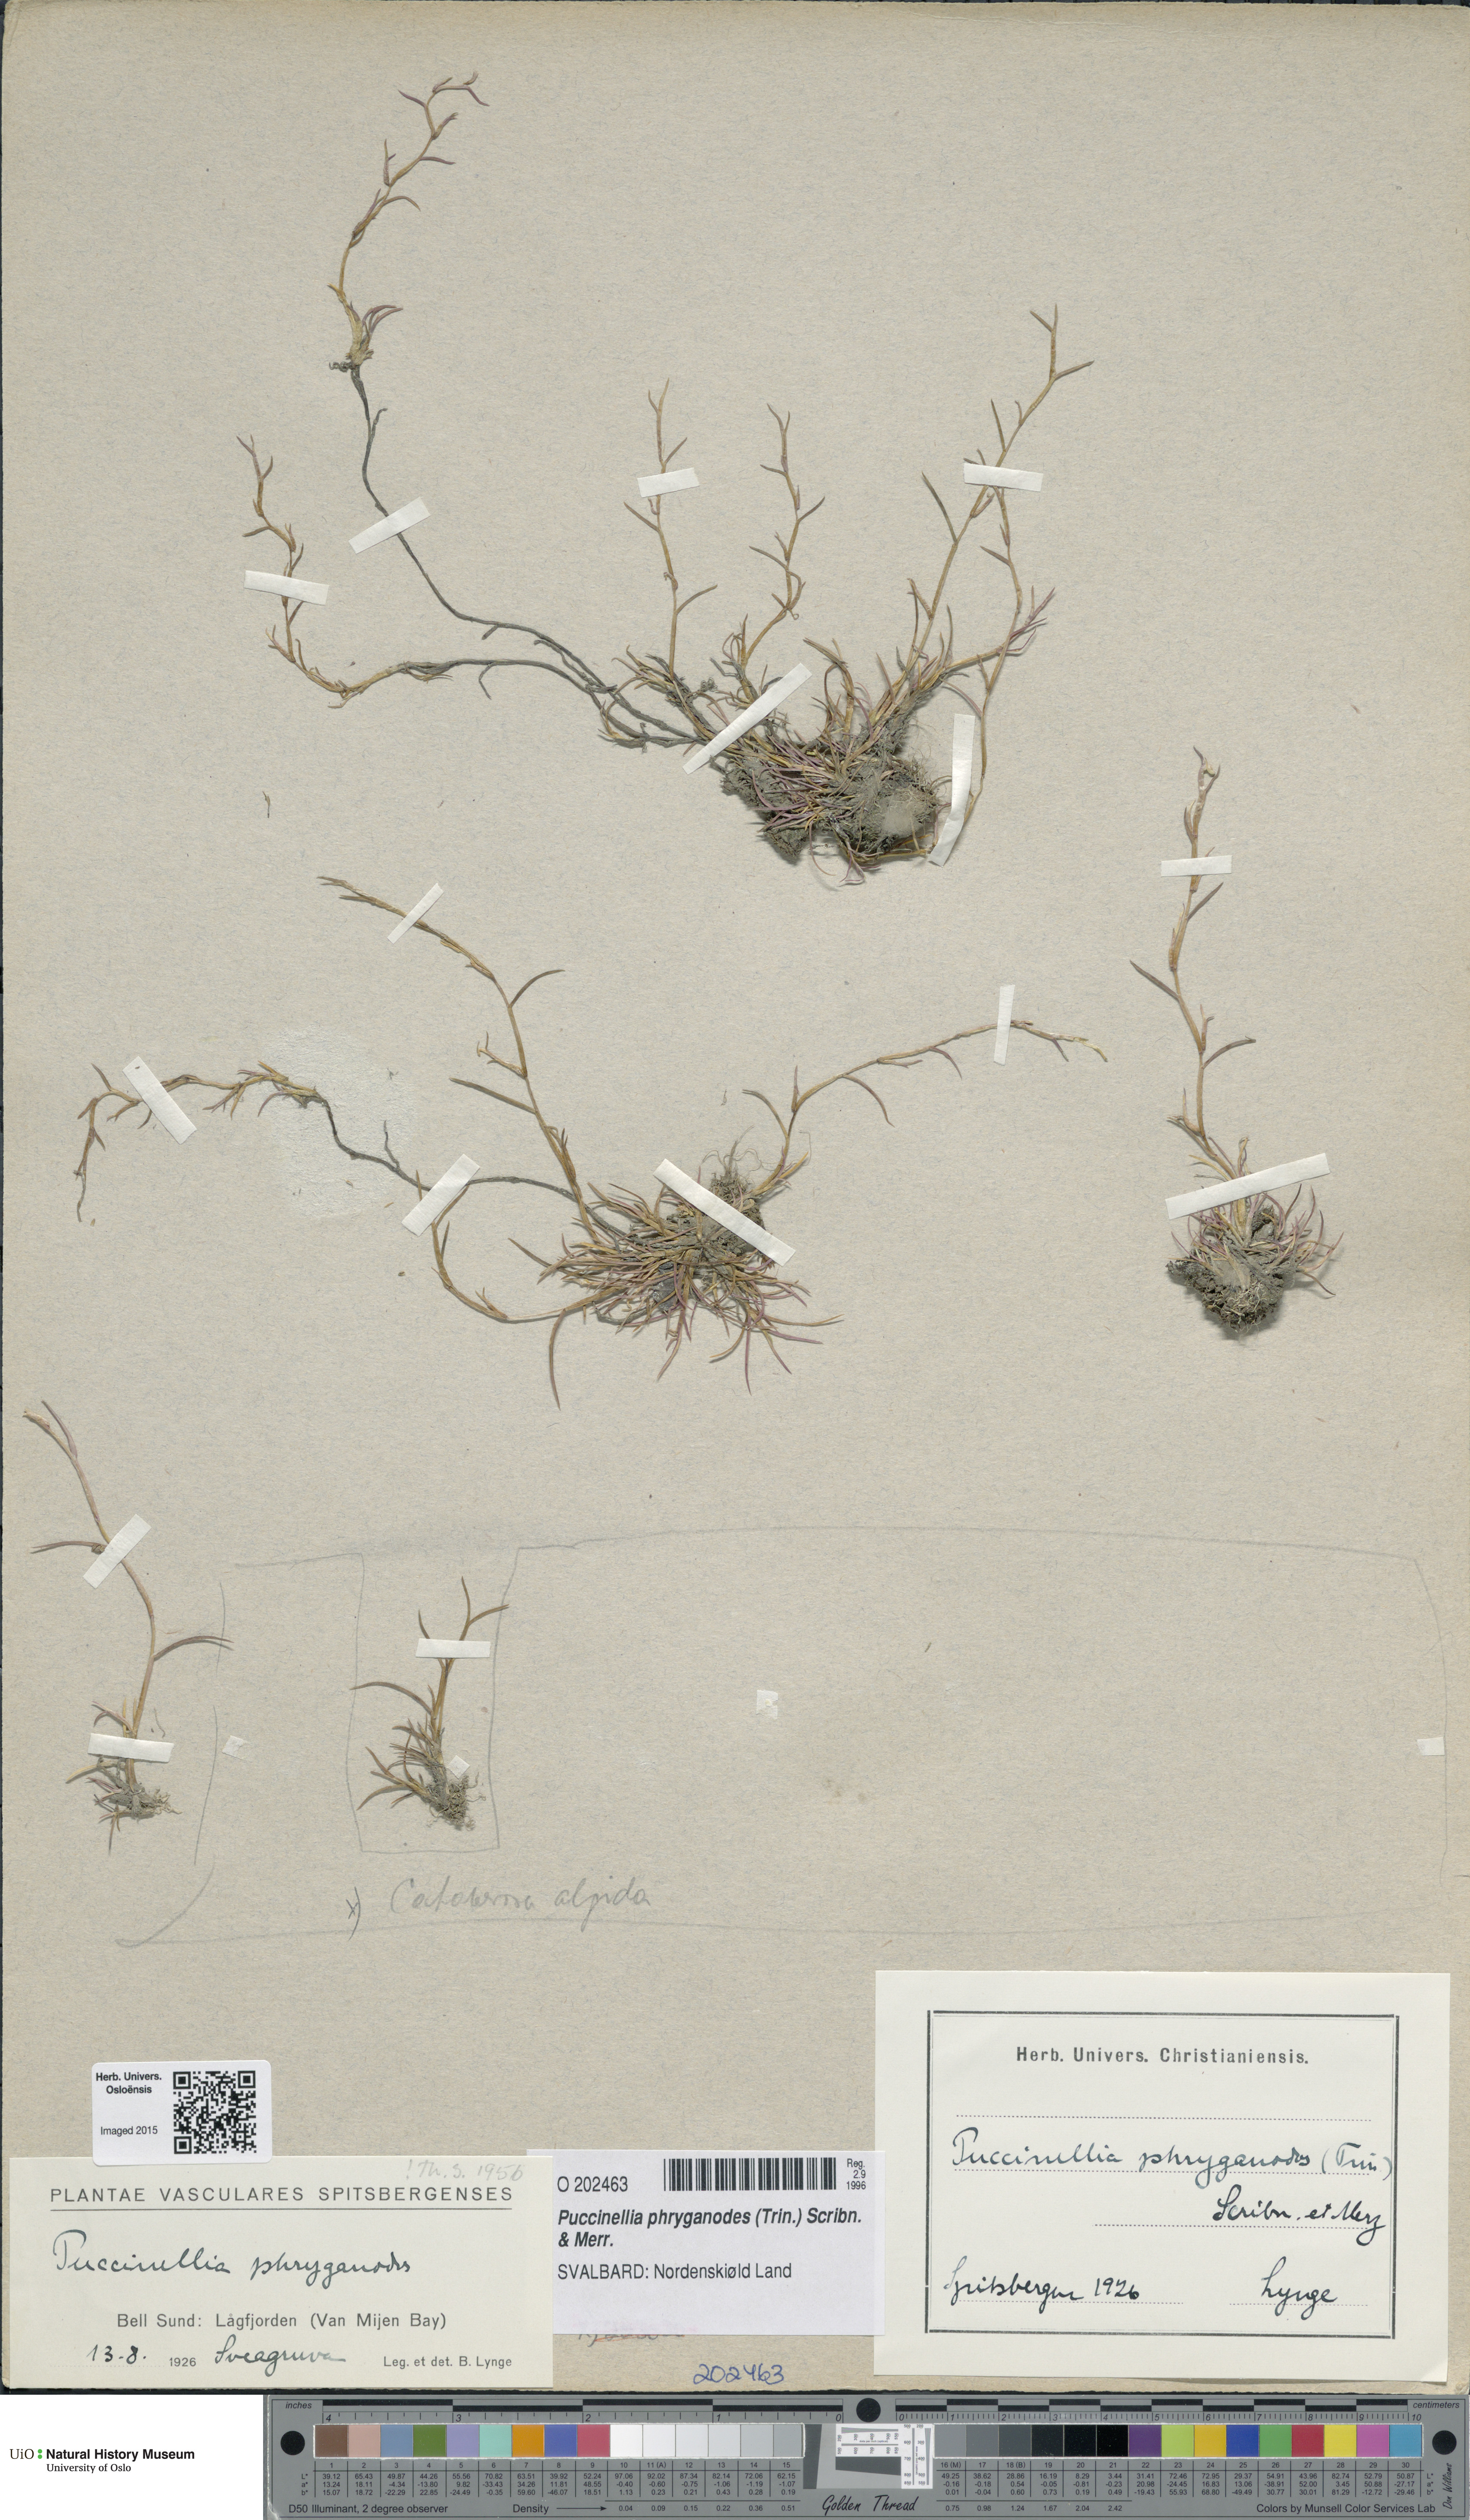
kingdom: Plantae
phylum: Tracheophyta
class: Liliopsida
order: Poales
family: Poaceae
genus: Puccinellia
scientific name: Puccinellia phryganodes
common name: Creeping alkaligrass
